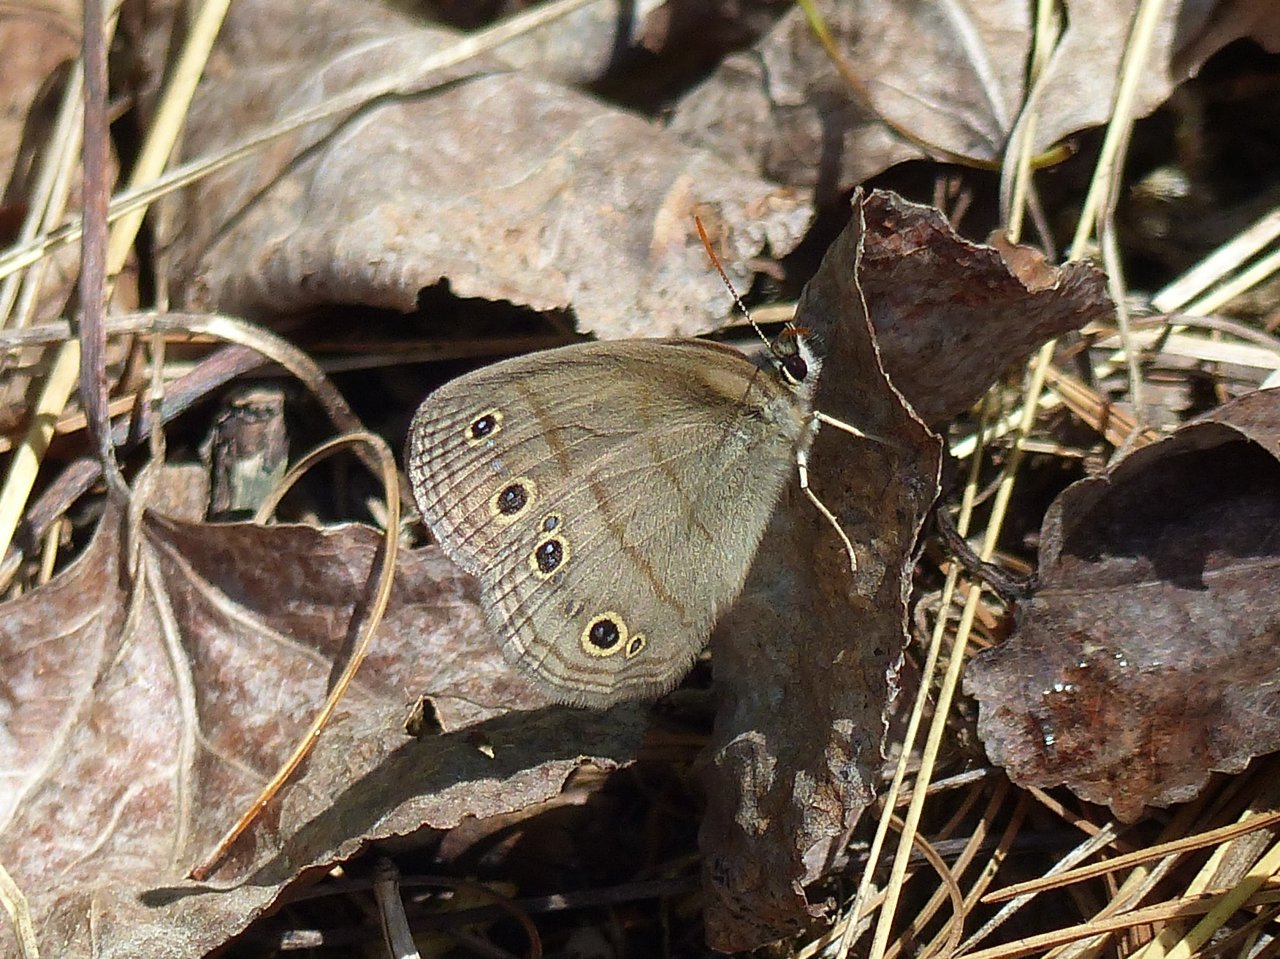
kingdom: Animalia
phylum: Arthropoda
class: Insecta
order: Lepidoptera
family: Nymphalidae
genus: Euptychia
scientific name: Euptychia cymela
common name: Little Wood Satyr
